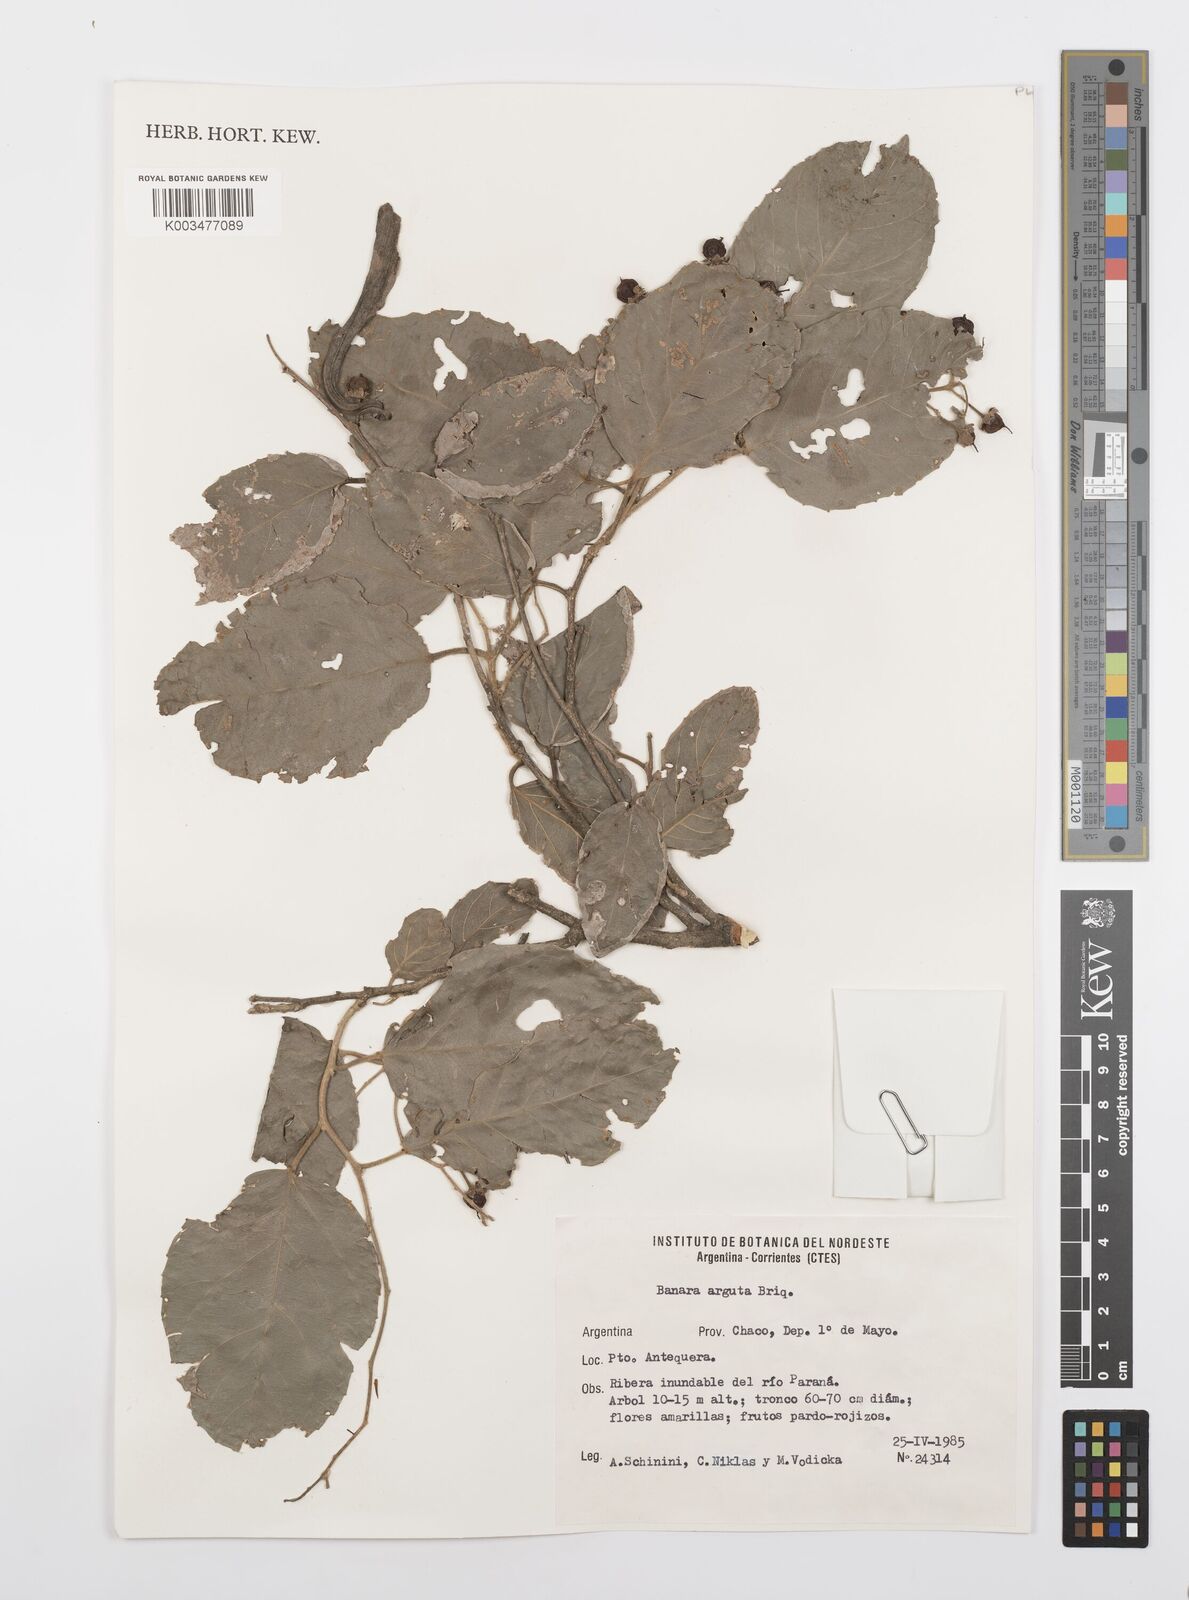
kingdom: Plantae
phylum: Tracheophyta
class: Magnoliopsida
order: Malpighiales
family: Salicaceae
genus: Banara
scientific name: Banara arguta
